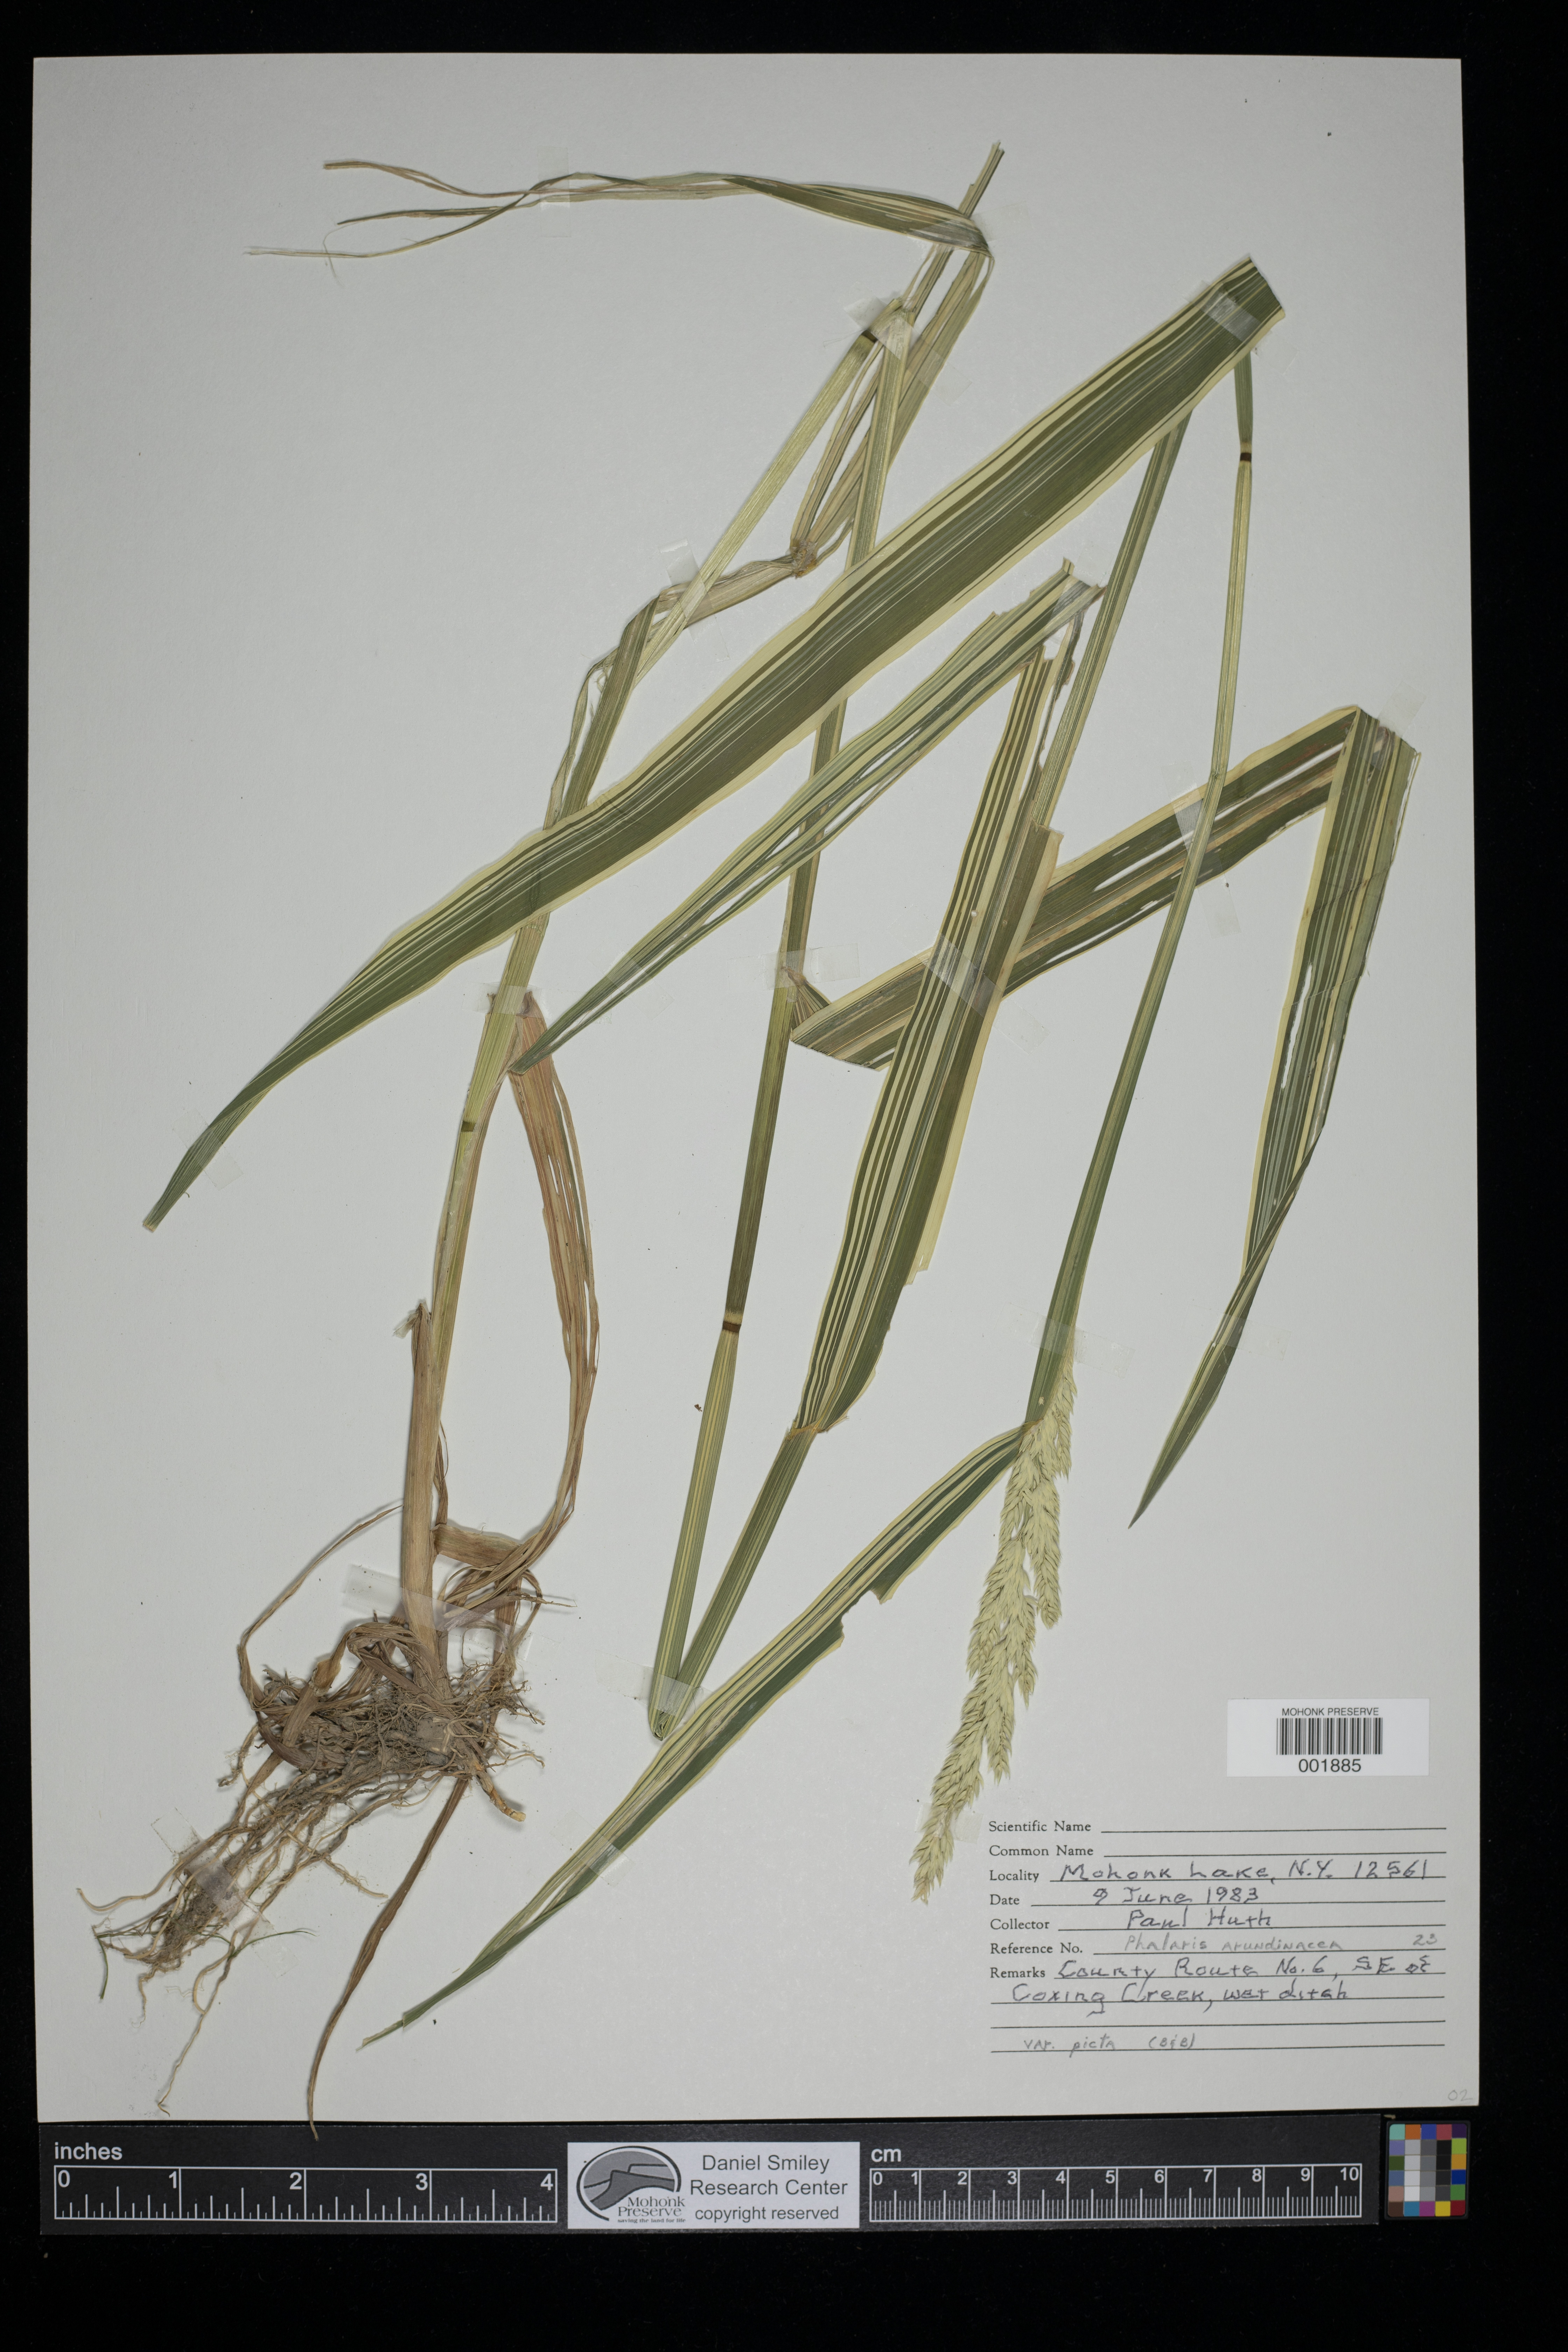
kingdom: Plantae
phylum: Tracheophyta
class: Liliopsida
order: Poales
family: Poaceae
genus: Phalaris
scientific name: Phalaris arundinacea
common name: Reed canary-grass
